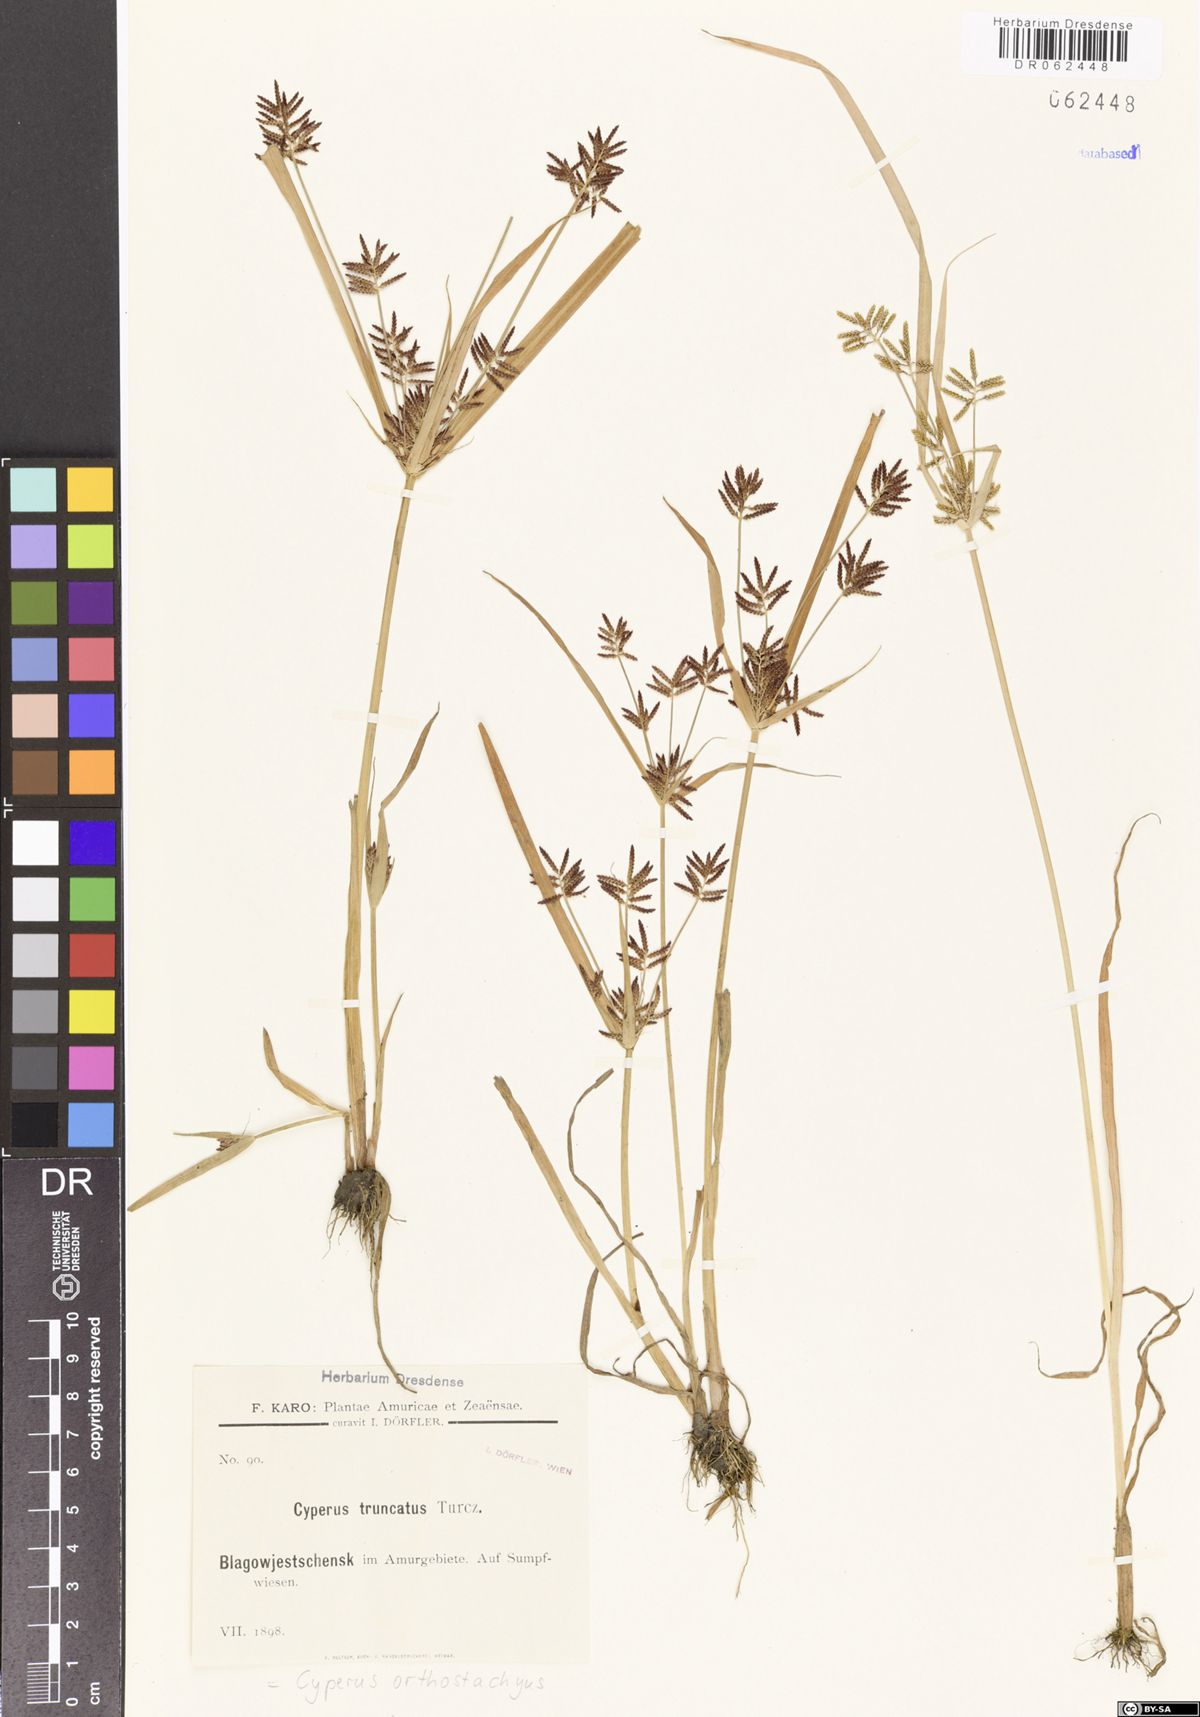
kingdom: Plantae
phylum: Tracheophyta
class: Liliopsida
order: Poales
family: Cyperaceae
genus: Cyperus
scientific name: Cyperus orthostachyus
